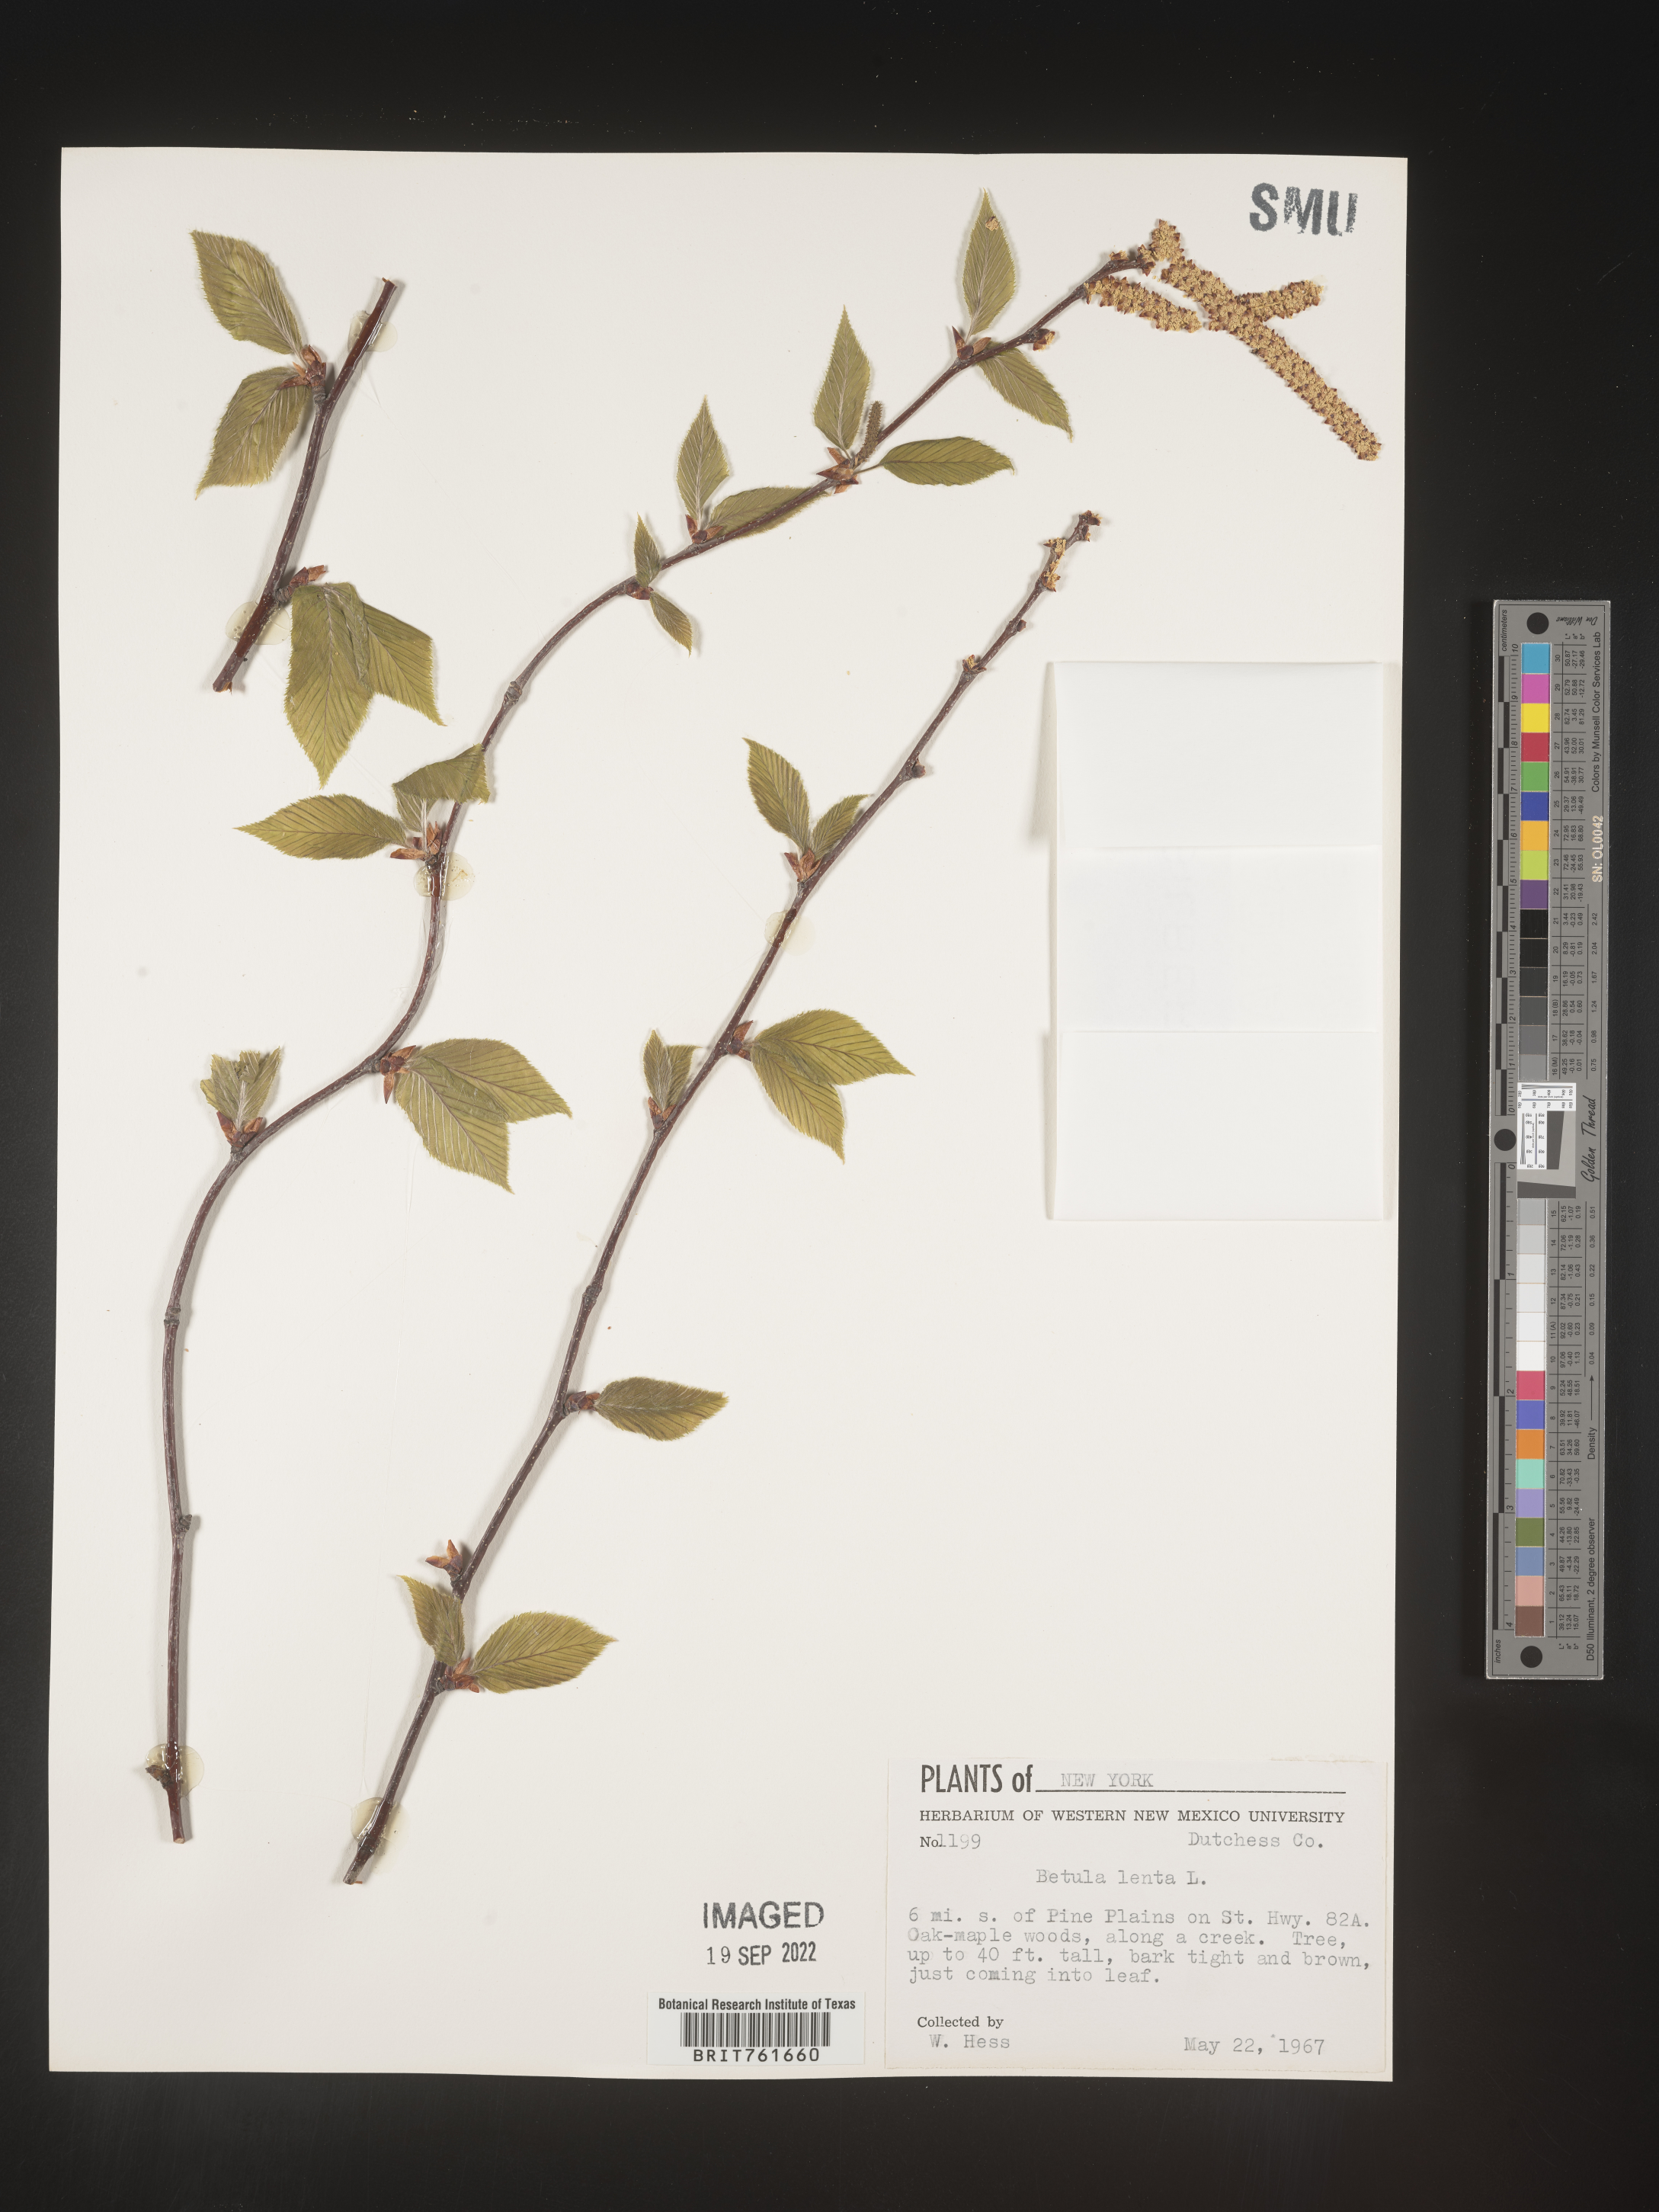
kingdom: Plantae
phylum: Tracheophyta
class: Magnoliopsida
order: Fagales
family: Betulaceae
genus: Betula
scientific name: Betula lenta
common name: Black birch
